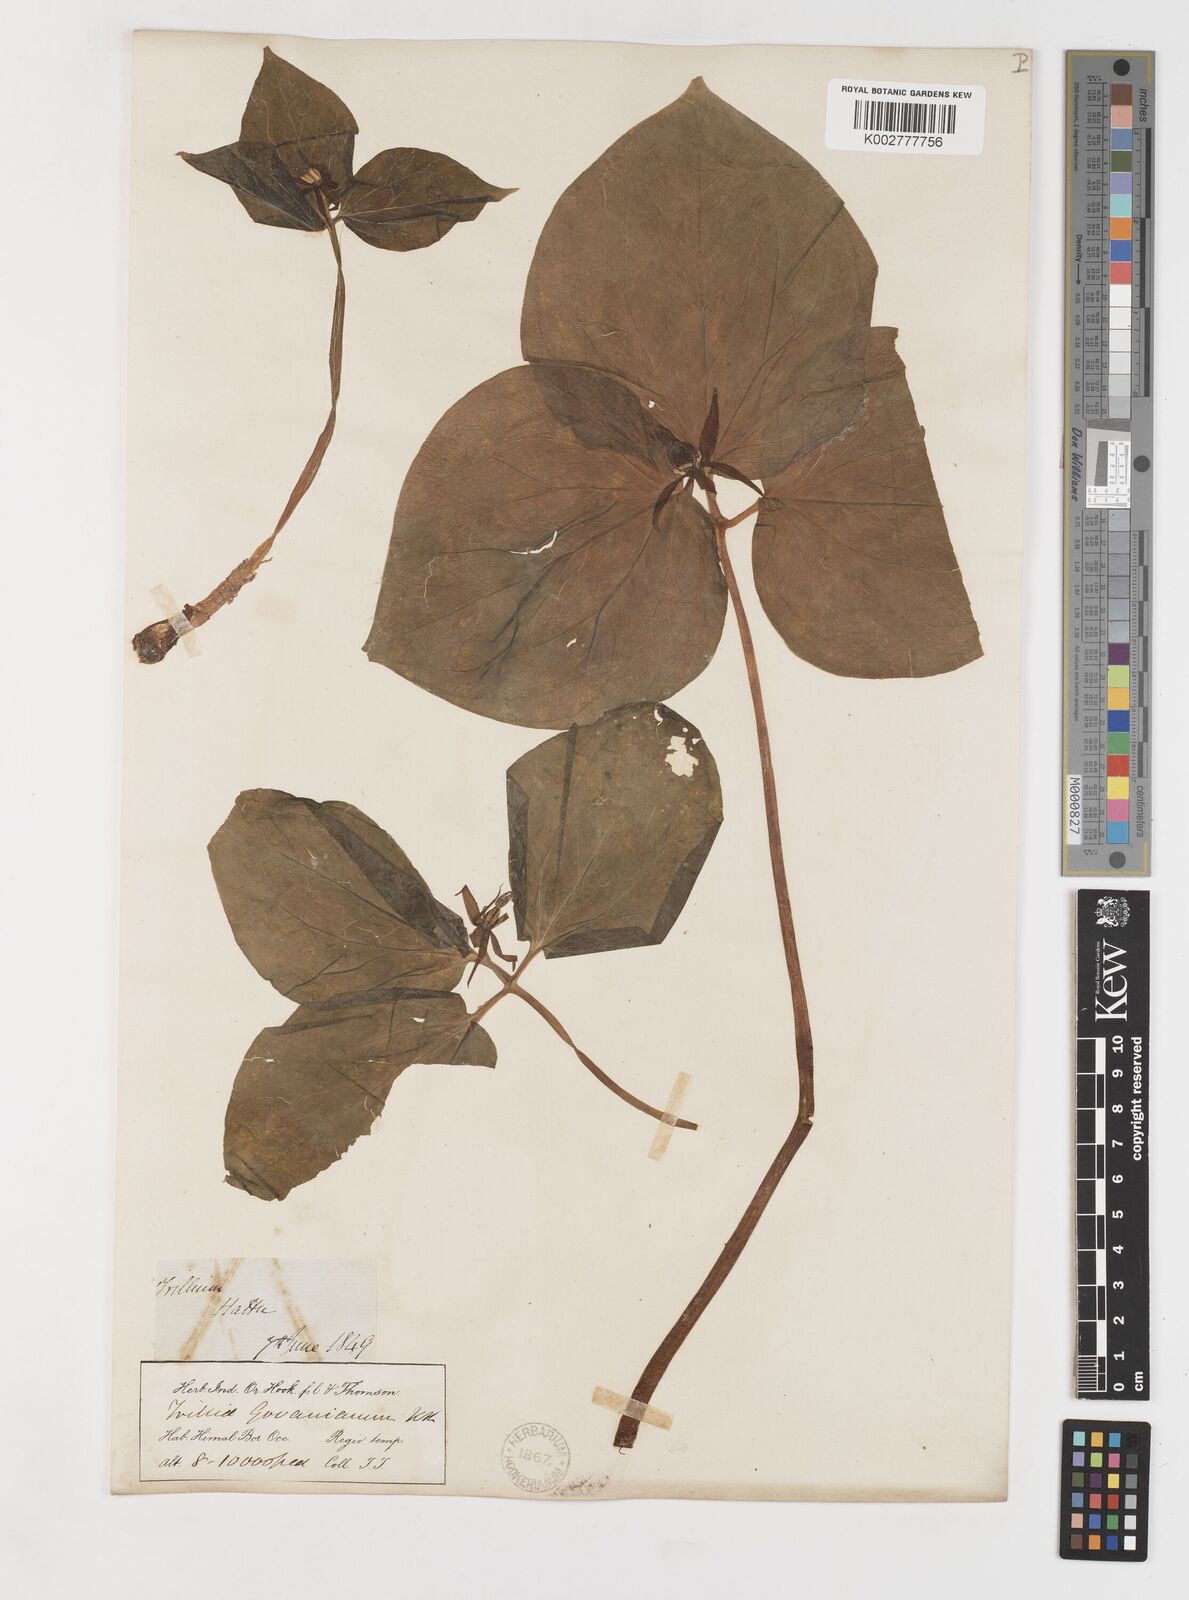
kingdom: Plantae
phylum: Tracheophyta
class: Liliopsida
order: Liliales
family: Melanthiaceae
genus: Trillium
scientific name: Trillium govanianum
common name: Himalayan trillium
